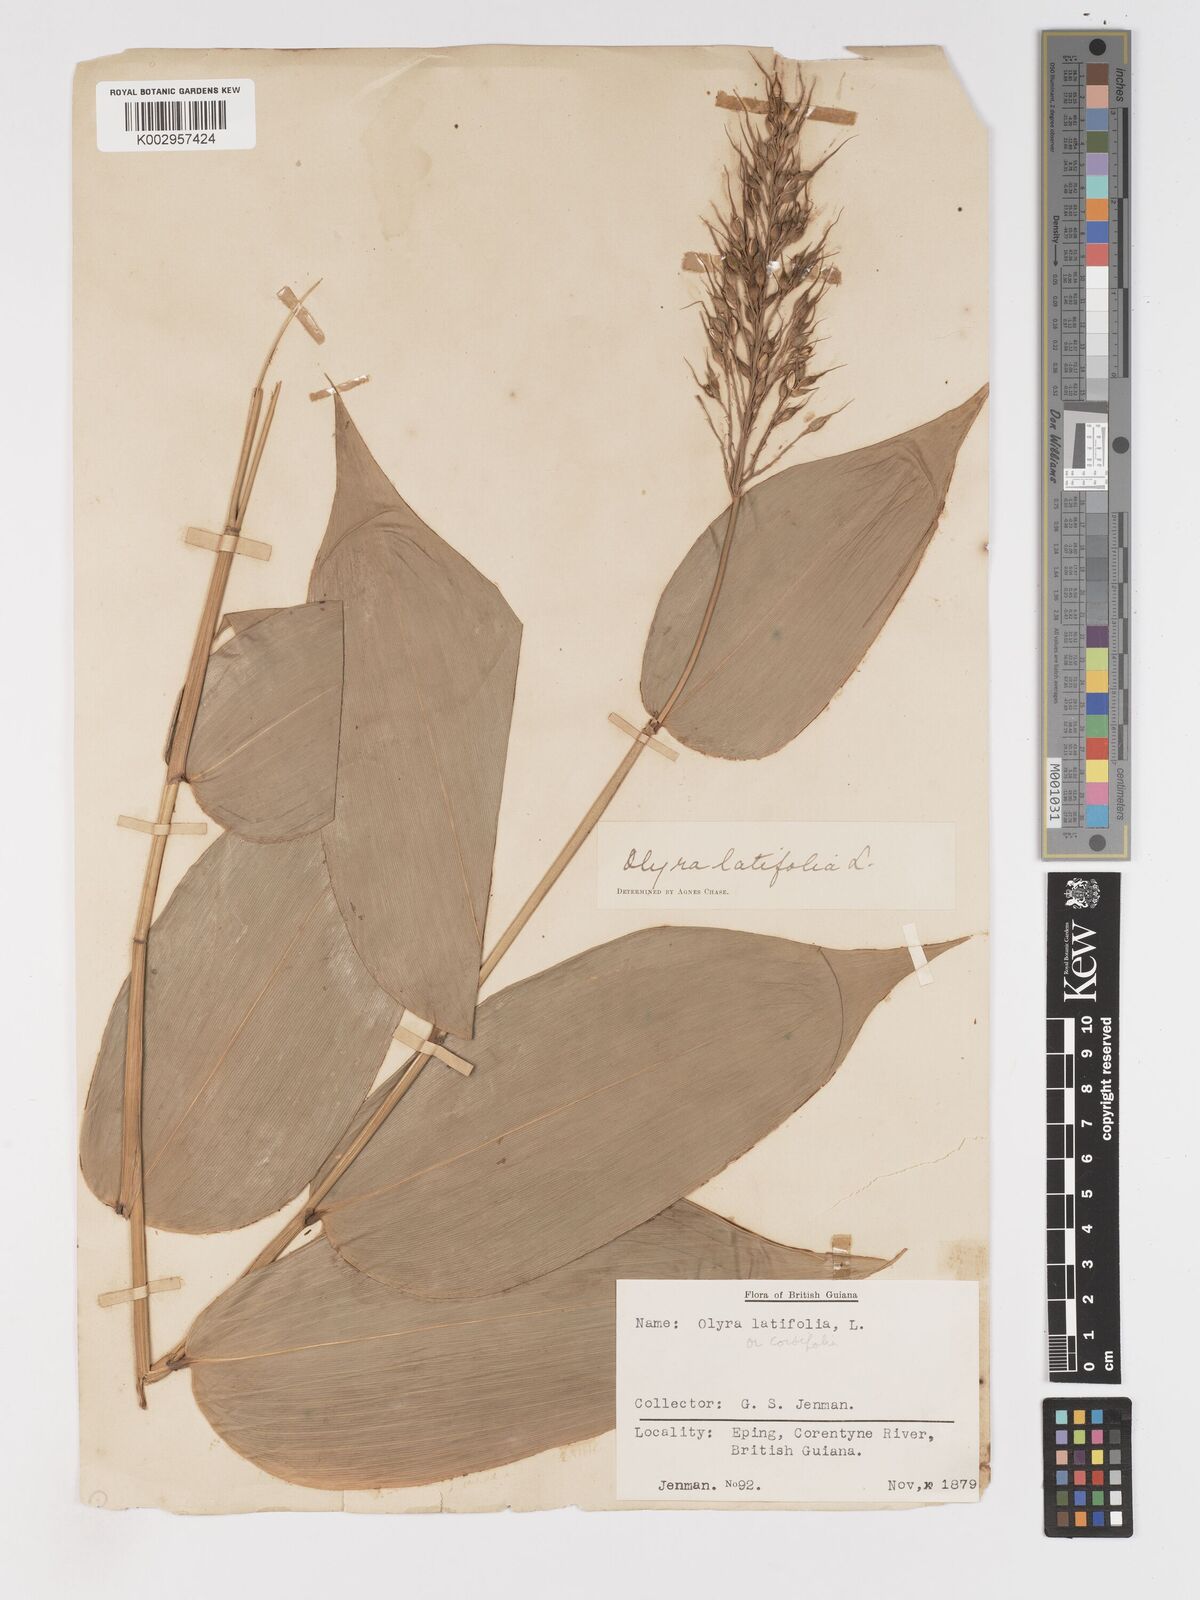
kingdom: Plantae
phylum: Tracheophyta
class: Liliopsida
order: Poales
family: Poaceae
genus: Olyra
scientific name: Olyra latifolia
